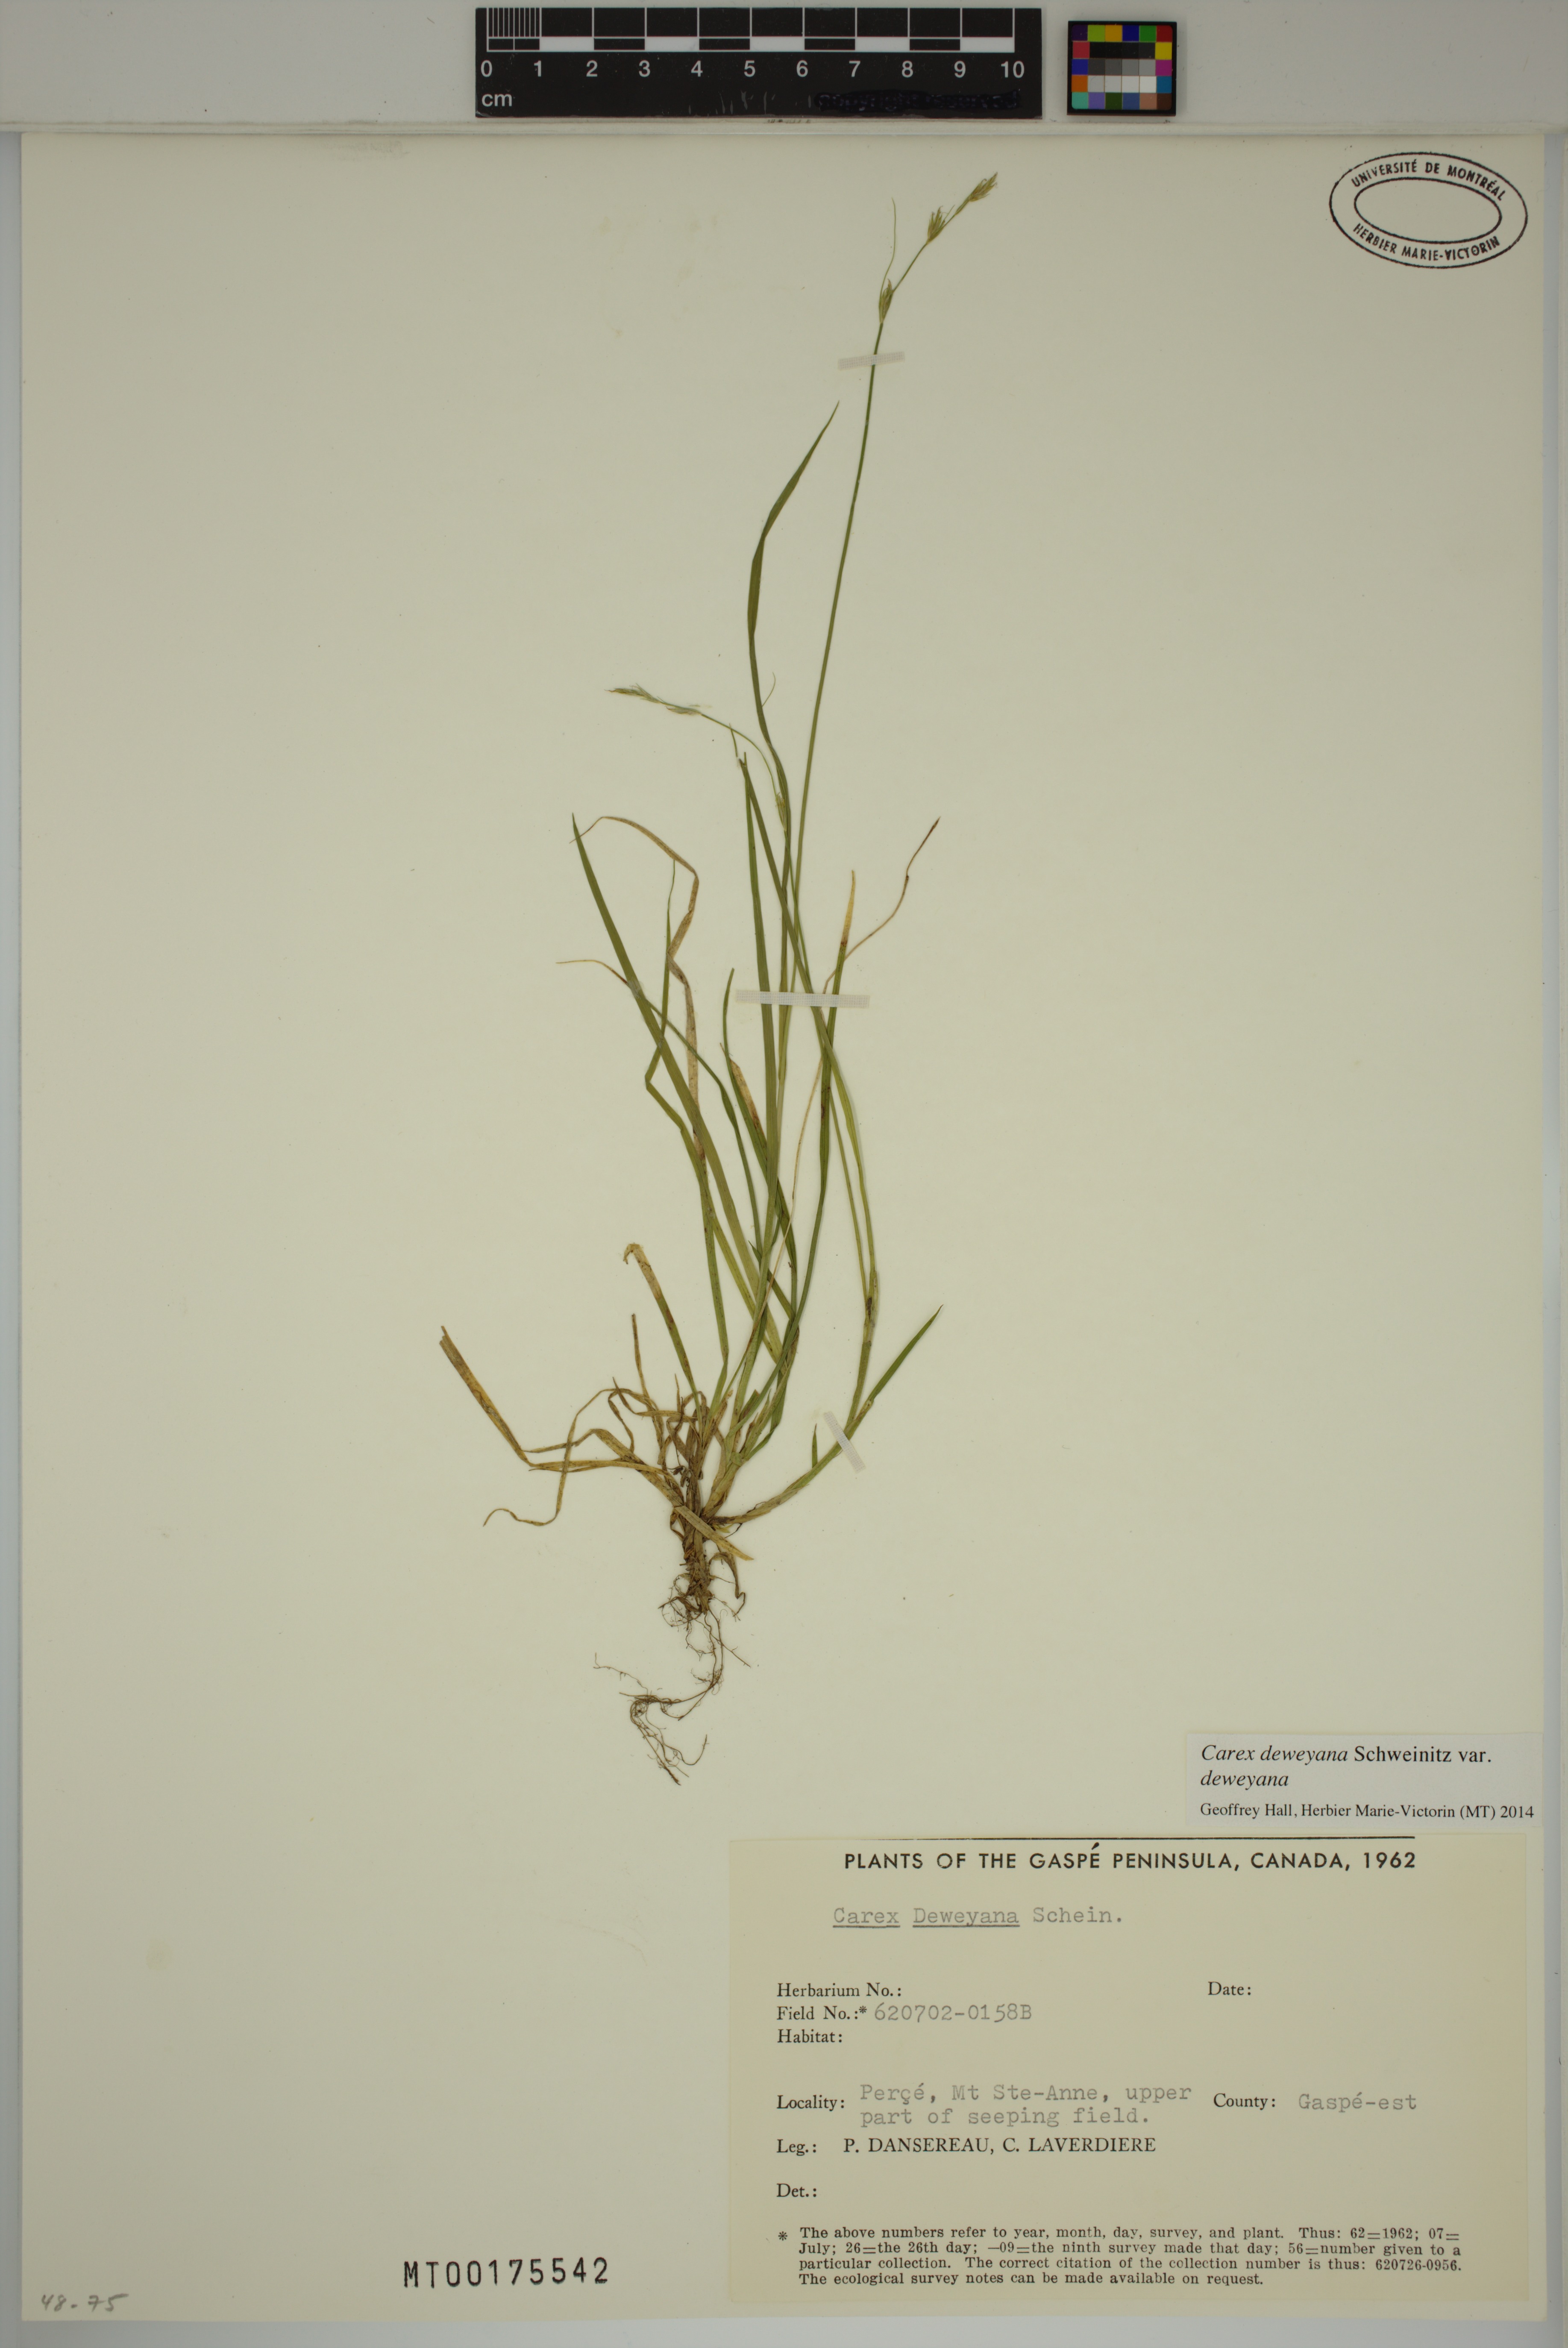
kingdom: Plantae
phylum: Tracheophyta
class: Liliopsida
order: Poales
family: Cyperaceae
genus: Carex
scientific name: Carex deweyana
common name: Dewey's sedge
